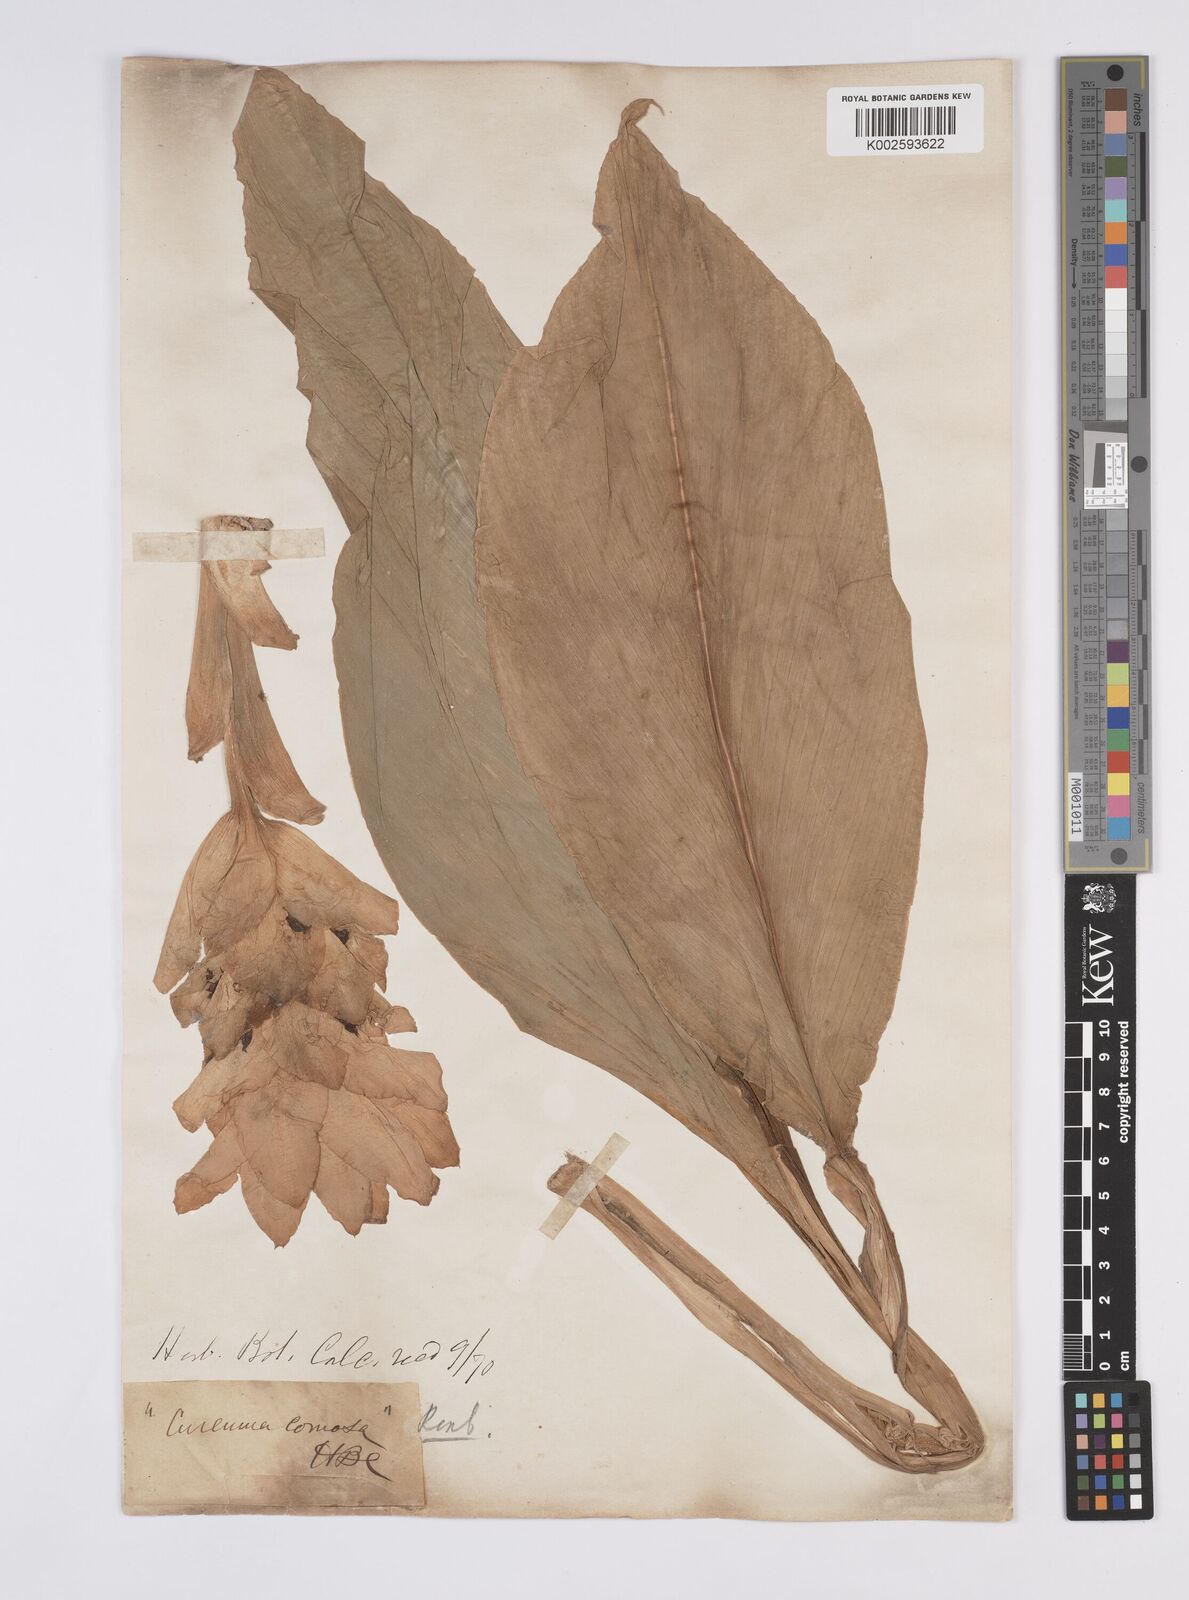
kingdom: Plantae
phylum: Tracheophyta
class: Liliopsida
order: Zingiberales
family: Zingiberaceae
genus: Curcuma
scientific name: Curcuma comosa
